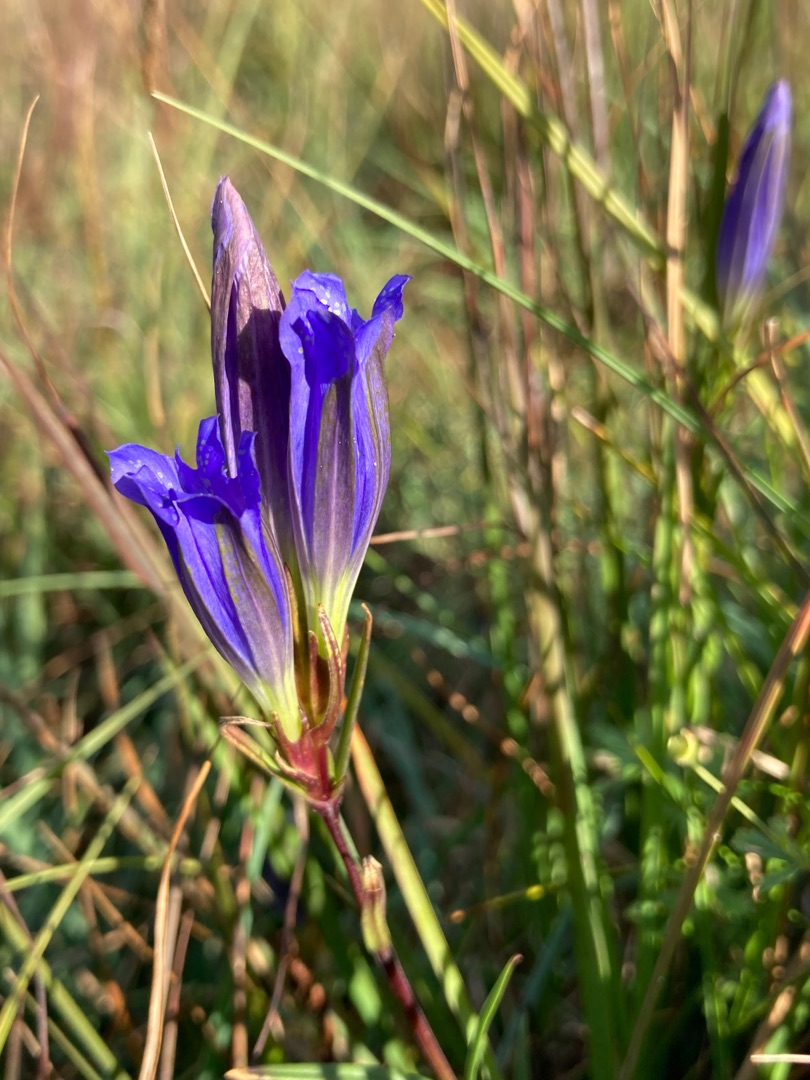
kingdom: Plantae
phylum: Tracheophyta
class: Magnoliopsida
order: Gentianales
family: Gentianaceae
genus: Gentiana
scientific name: Gentiana pneumonanthe
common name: Klokke-ensian
